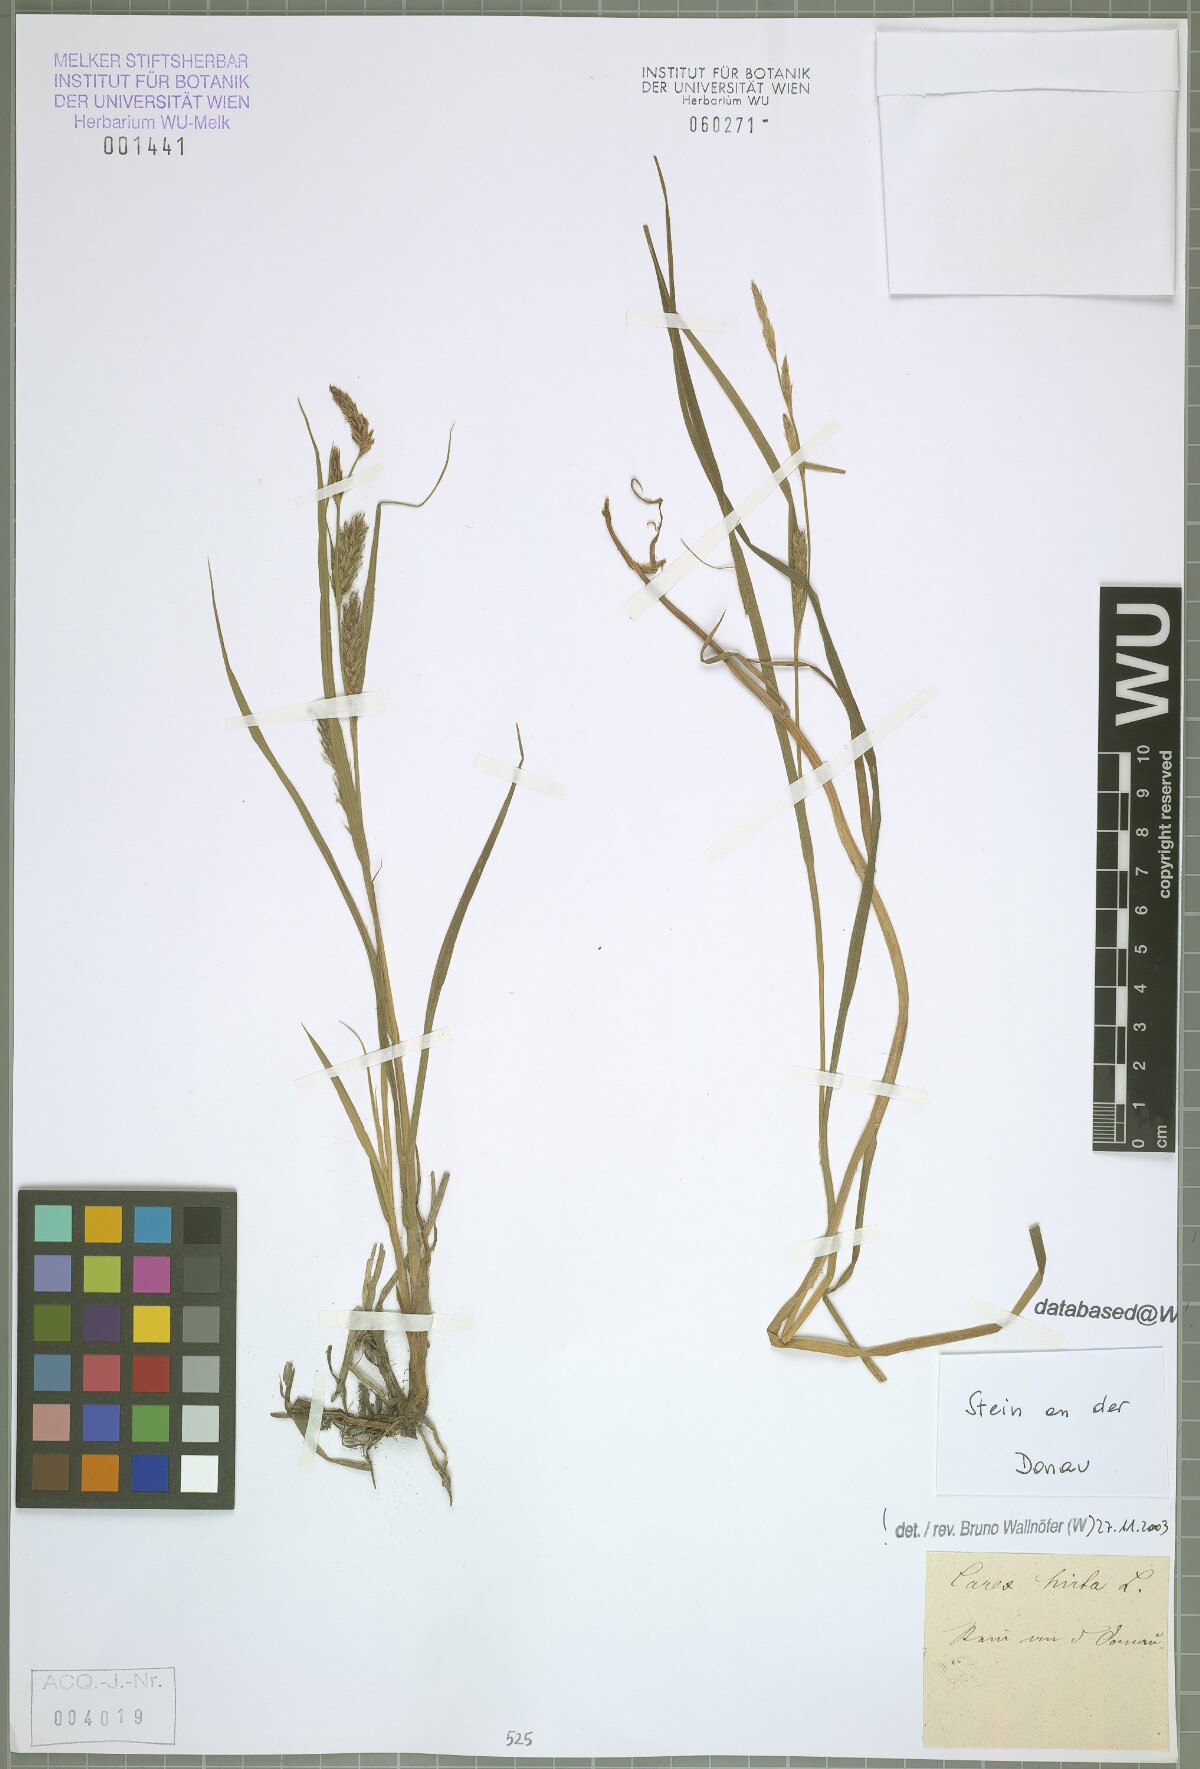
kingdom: Plantae
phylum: Tracheophyta
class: Liliopsida
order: Poales
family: Cyperaceae
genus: Carex
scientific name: Carex hirta
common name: Hairy sedge
